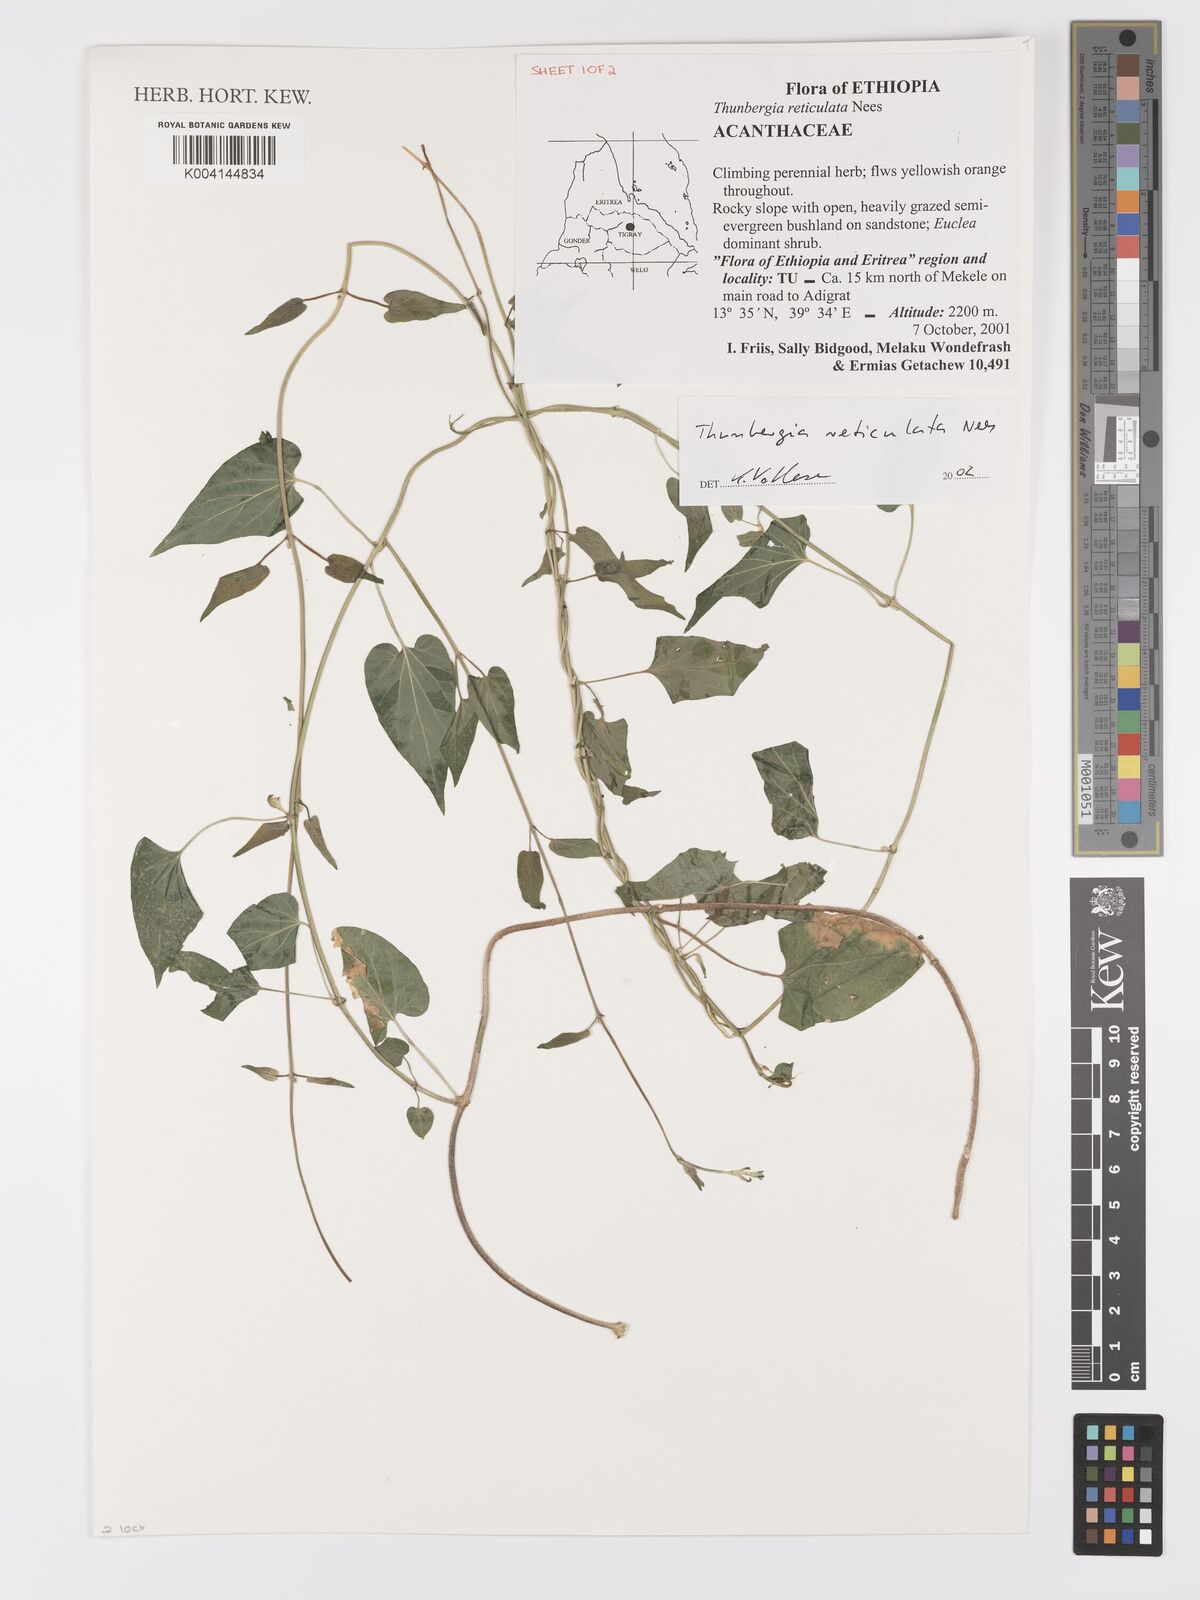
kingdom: Plantae
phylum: Tracheophyta
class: Magnoliopsida
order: Lamiales
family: Acanthaceae
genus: Thunbergia
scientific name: Thunbergia reticulata
